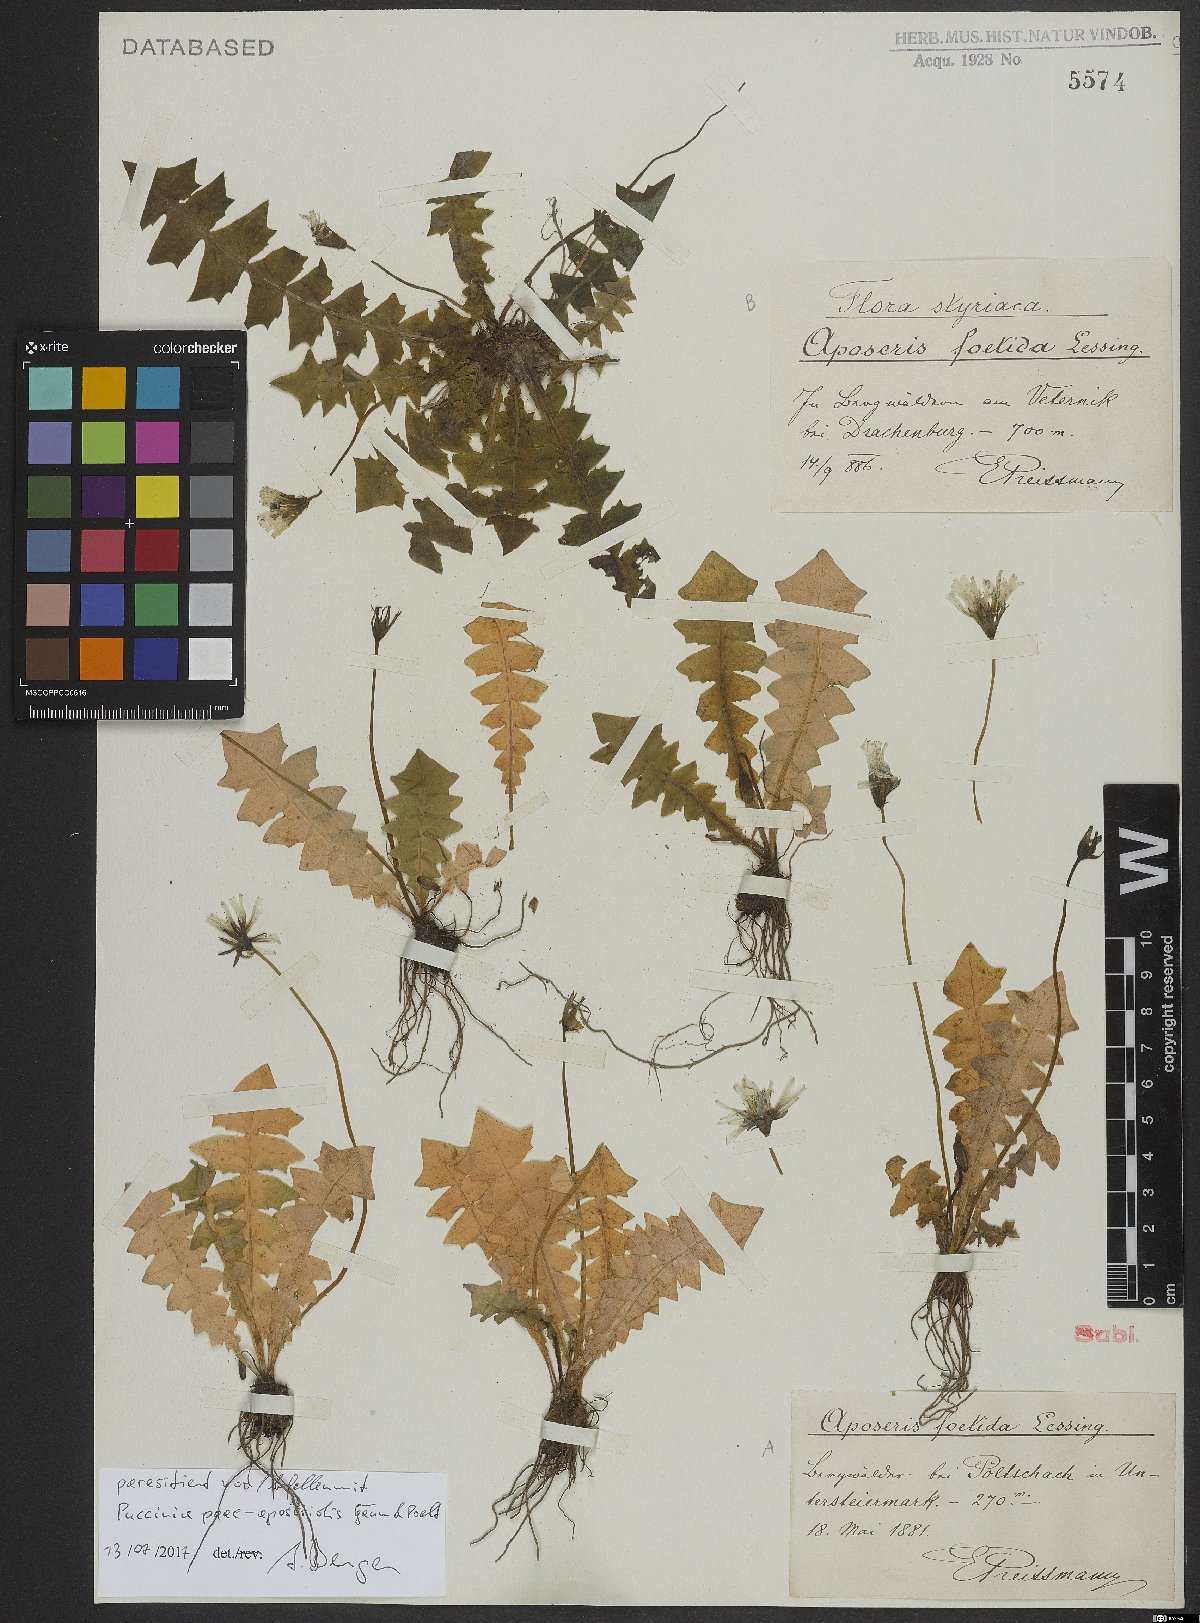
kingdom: Plantae
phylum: Tracheophyta
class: Magnoliopsida
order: Asterales
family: Asteraceae
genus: Aposeris
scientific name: Aposeris foetida
